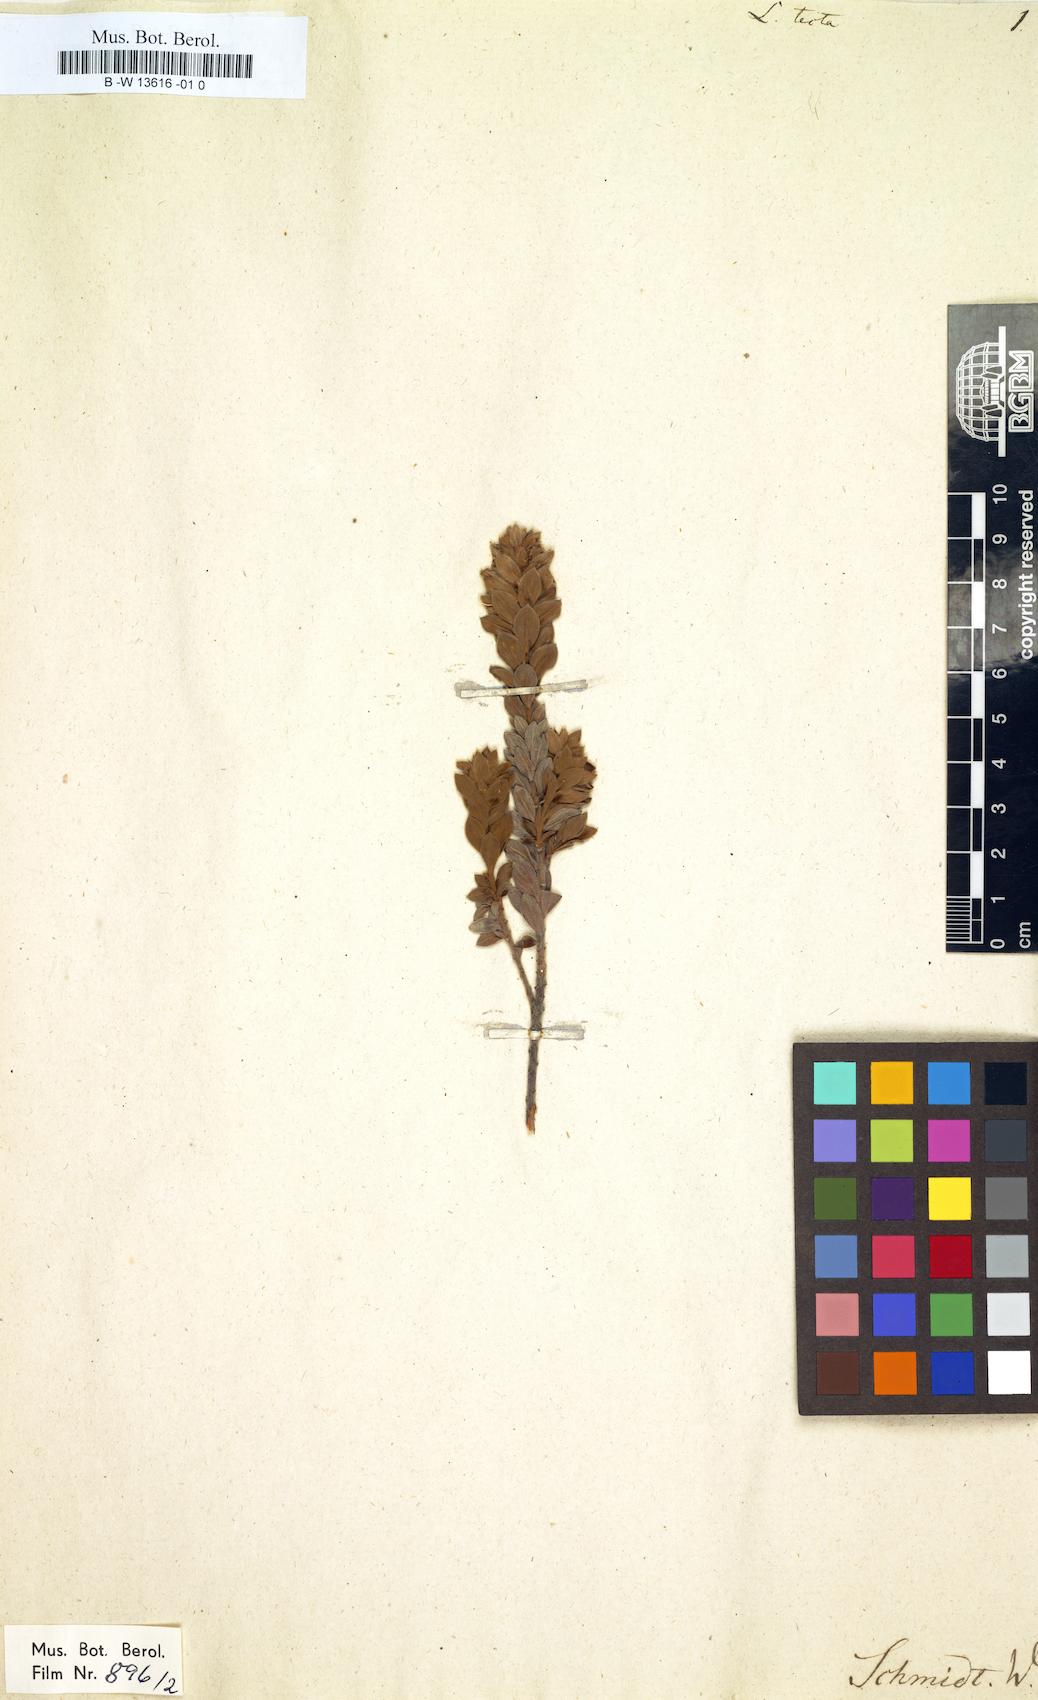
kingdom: Plantae
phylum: Tracheophyta
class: Magnoliopsida
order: Fabales
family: Fabaceae
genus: Xiphotheca
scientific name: Xiphotheca tecta
